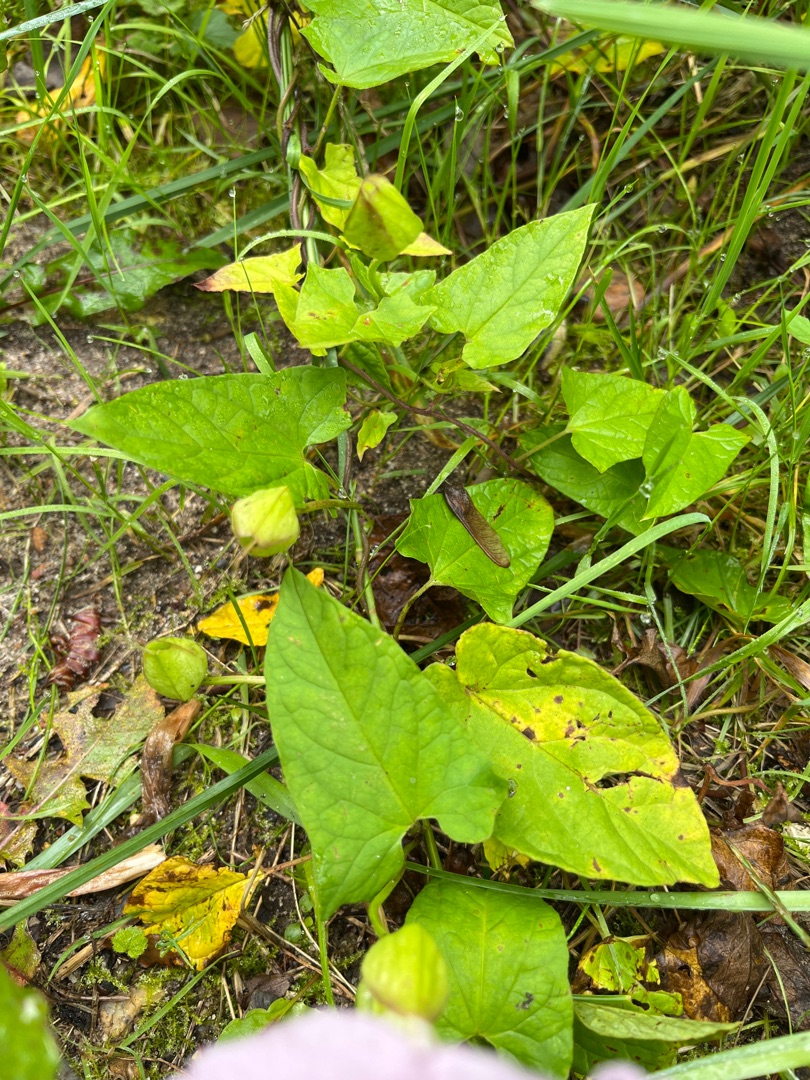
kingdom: Plantae
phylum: Tracheophyta
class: Magnoliopsida
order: Solanales
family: Convolvulaceae
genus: Calystegia
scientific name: Calystegia pulchra
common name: Have-snerle
